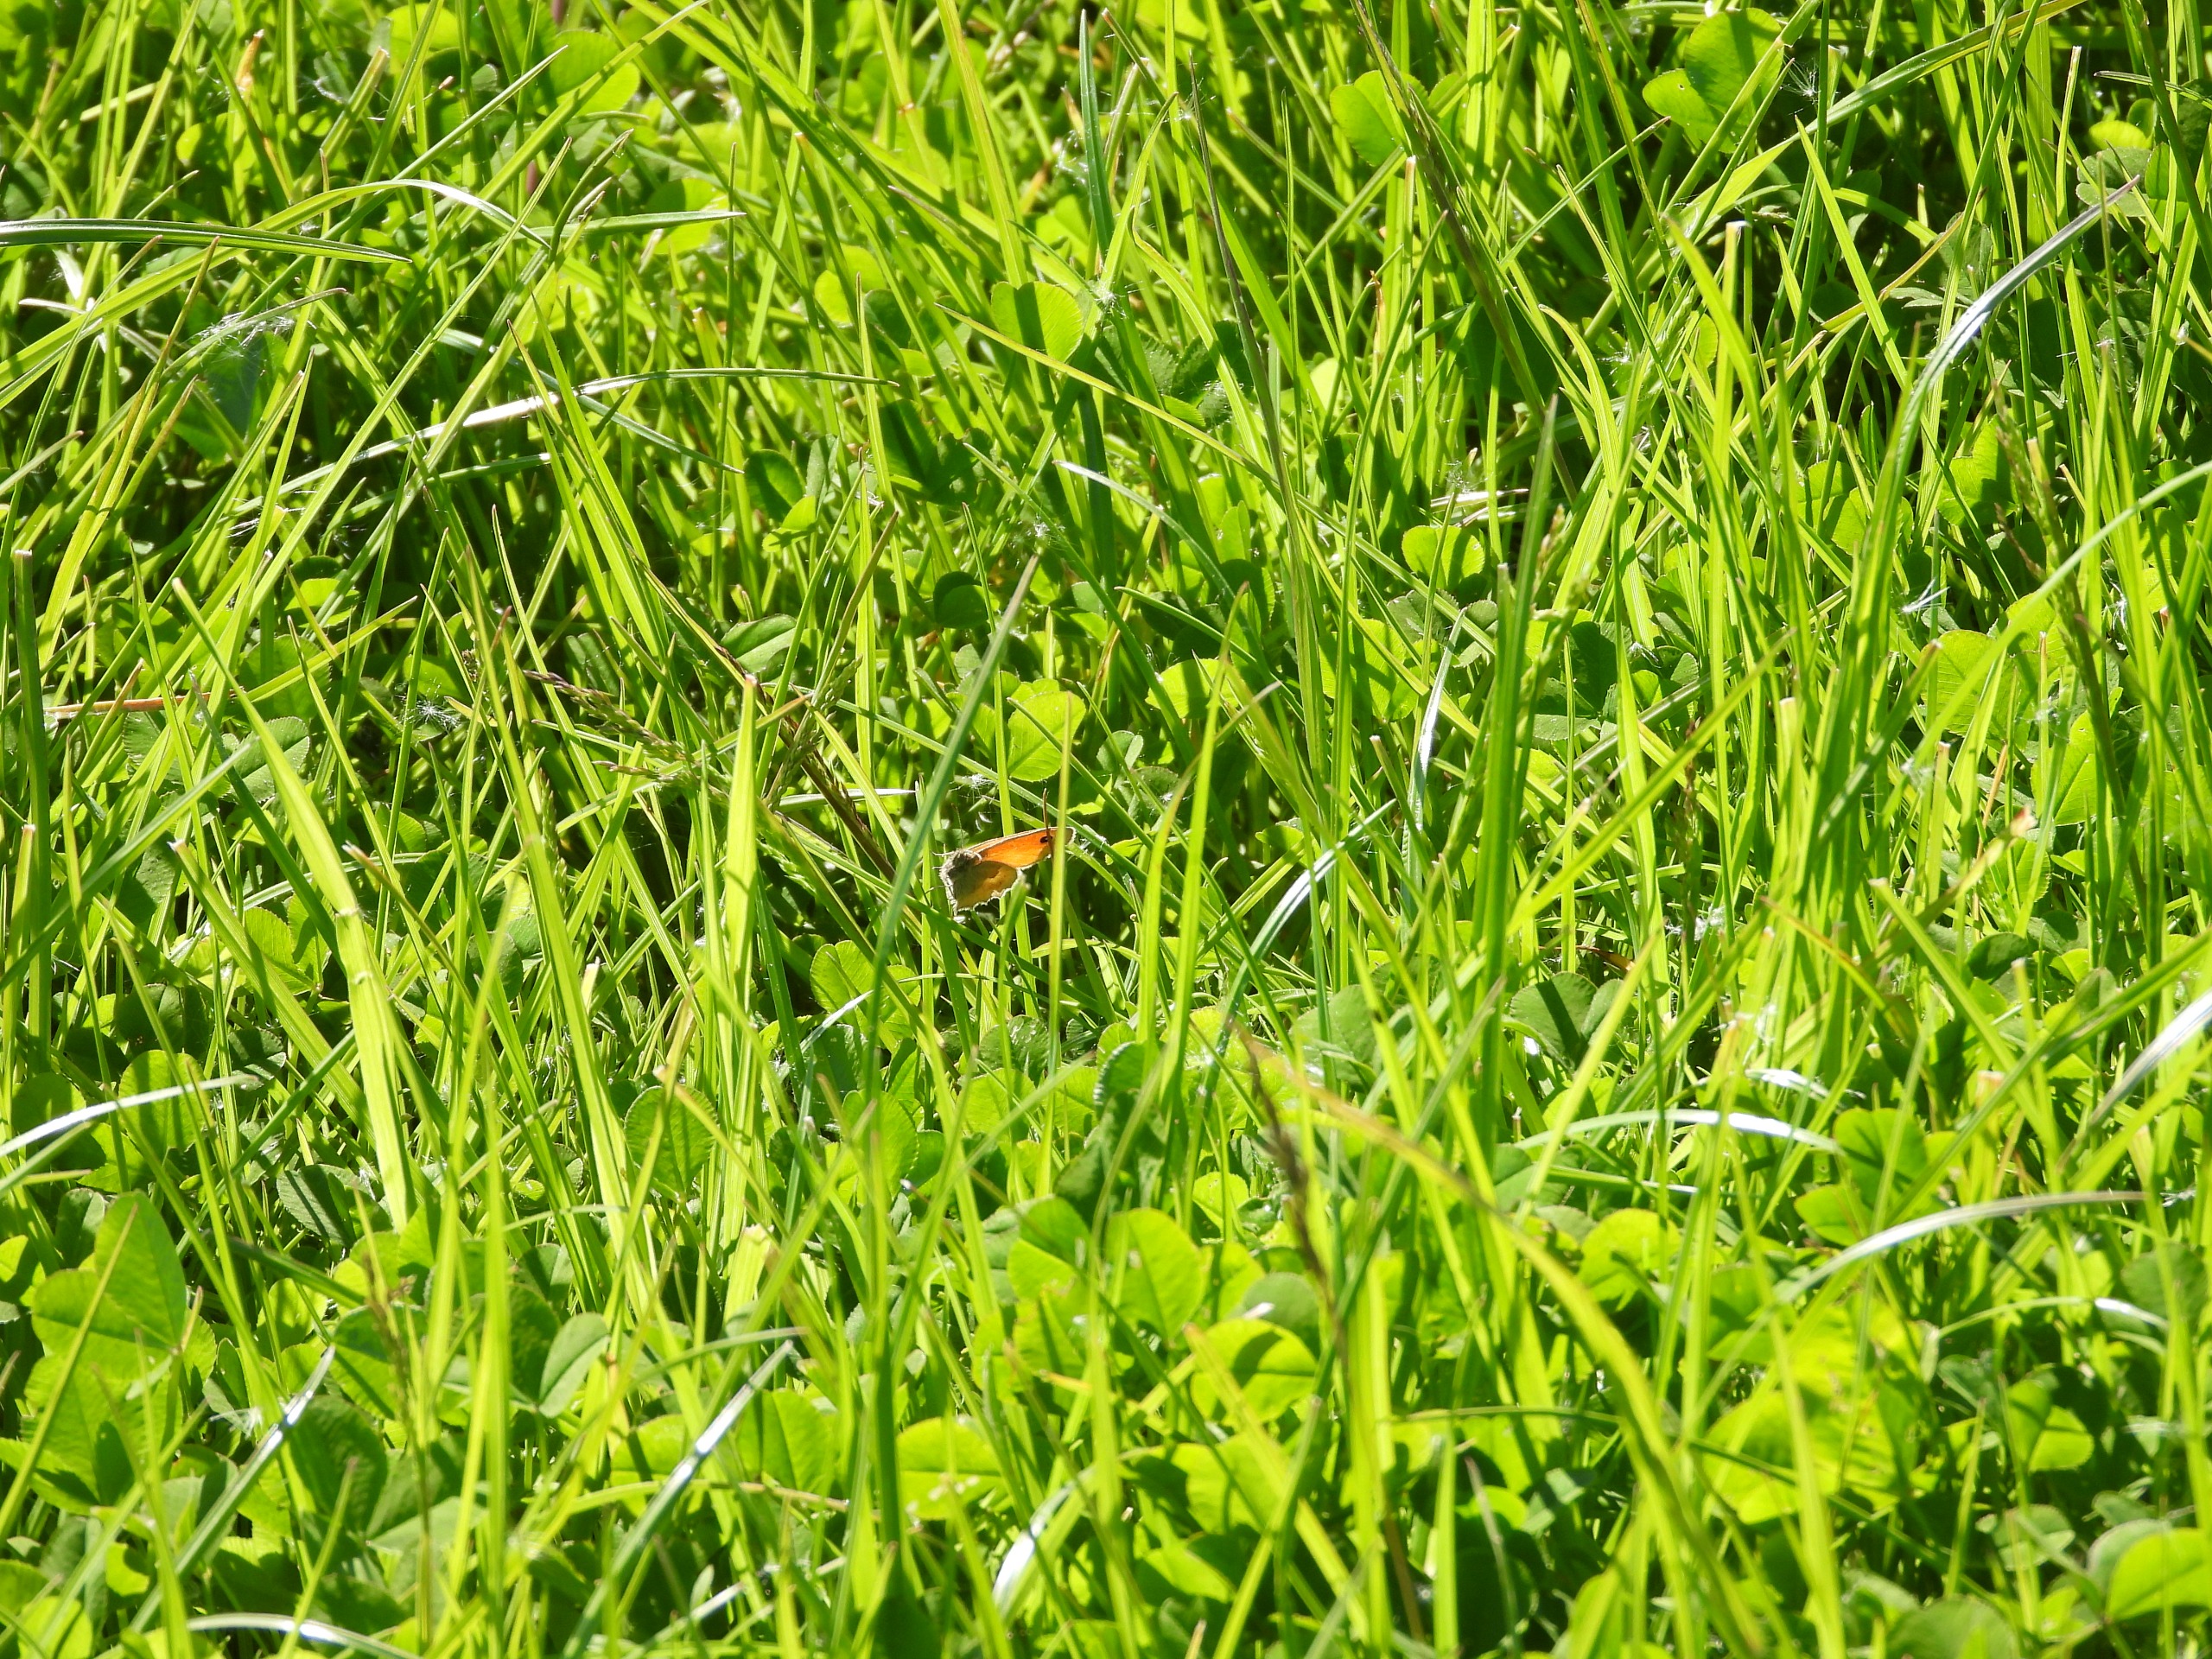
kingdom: Animalia
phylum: Arthropoda
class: Insecta
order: Lepidoptera
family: Nymphalidae
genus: Coenonympha
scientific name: Coenonympha pamphilus
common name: Okkergul randøje
